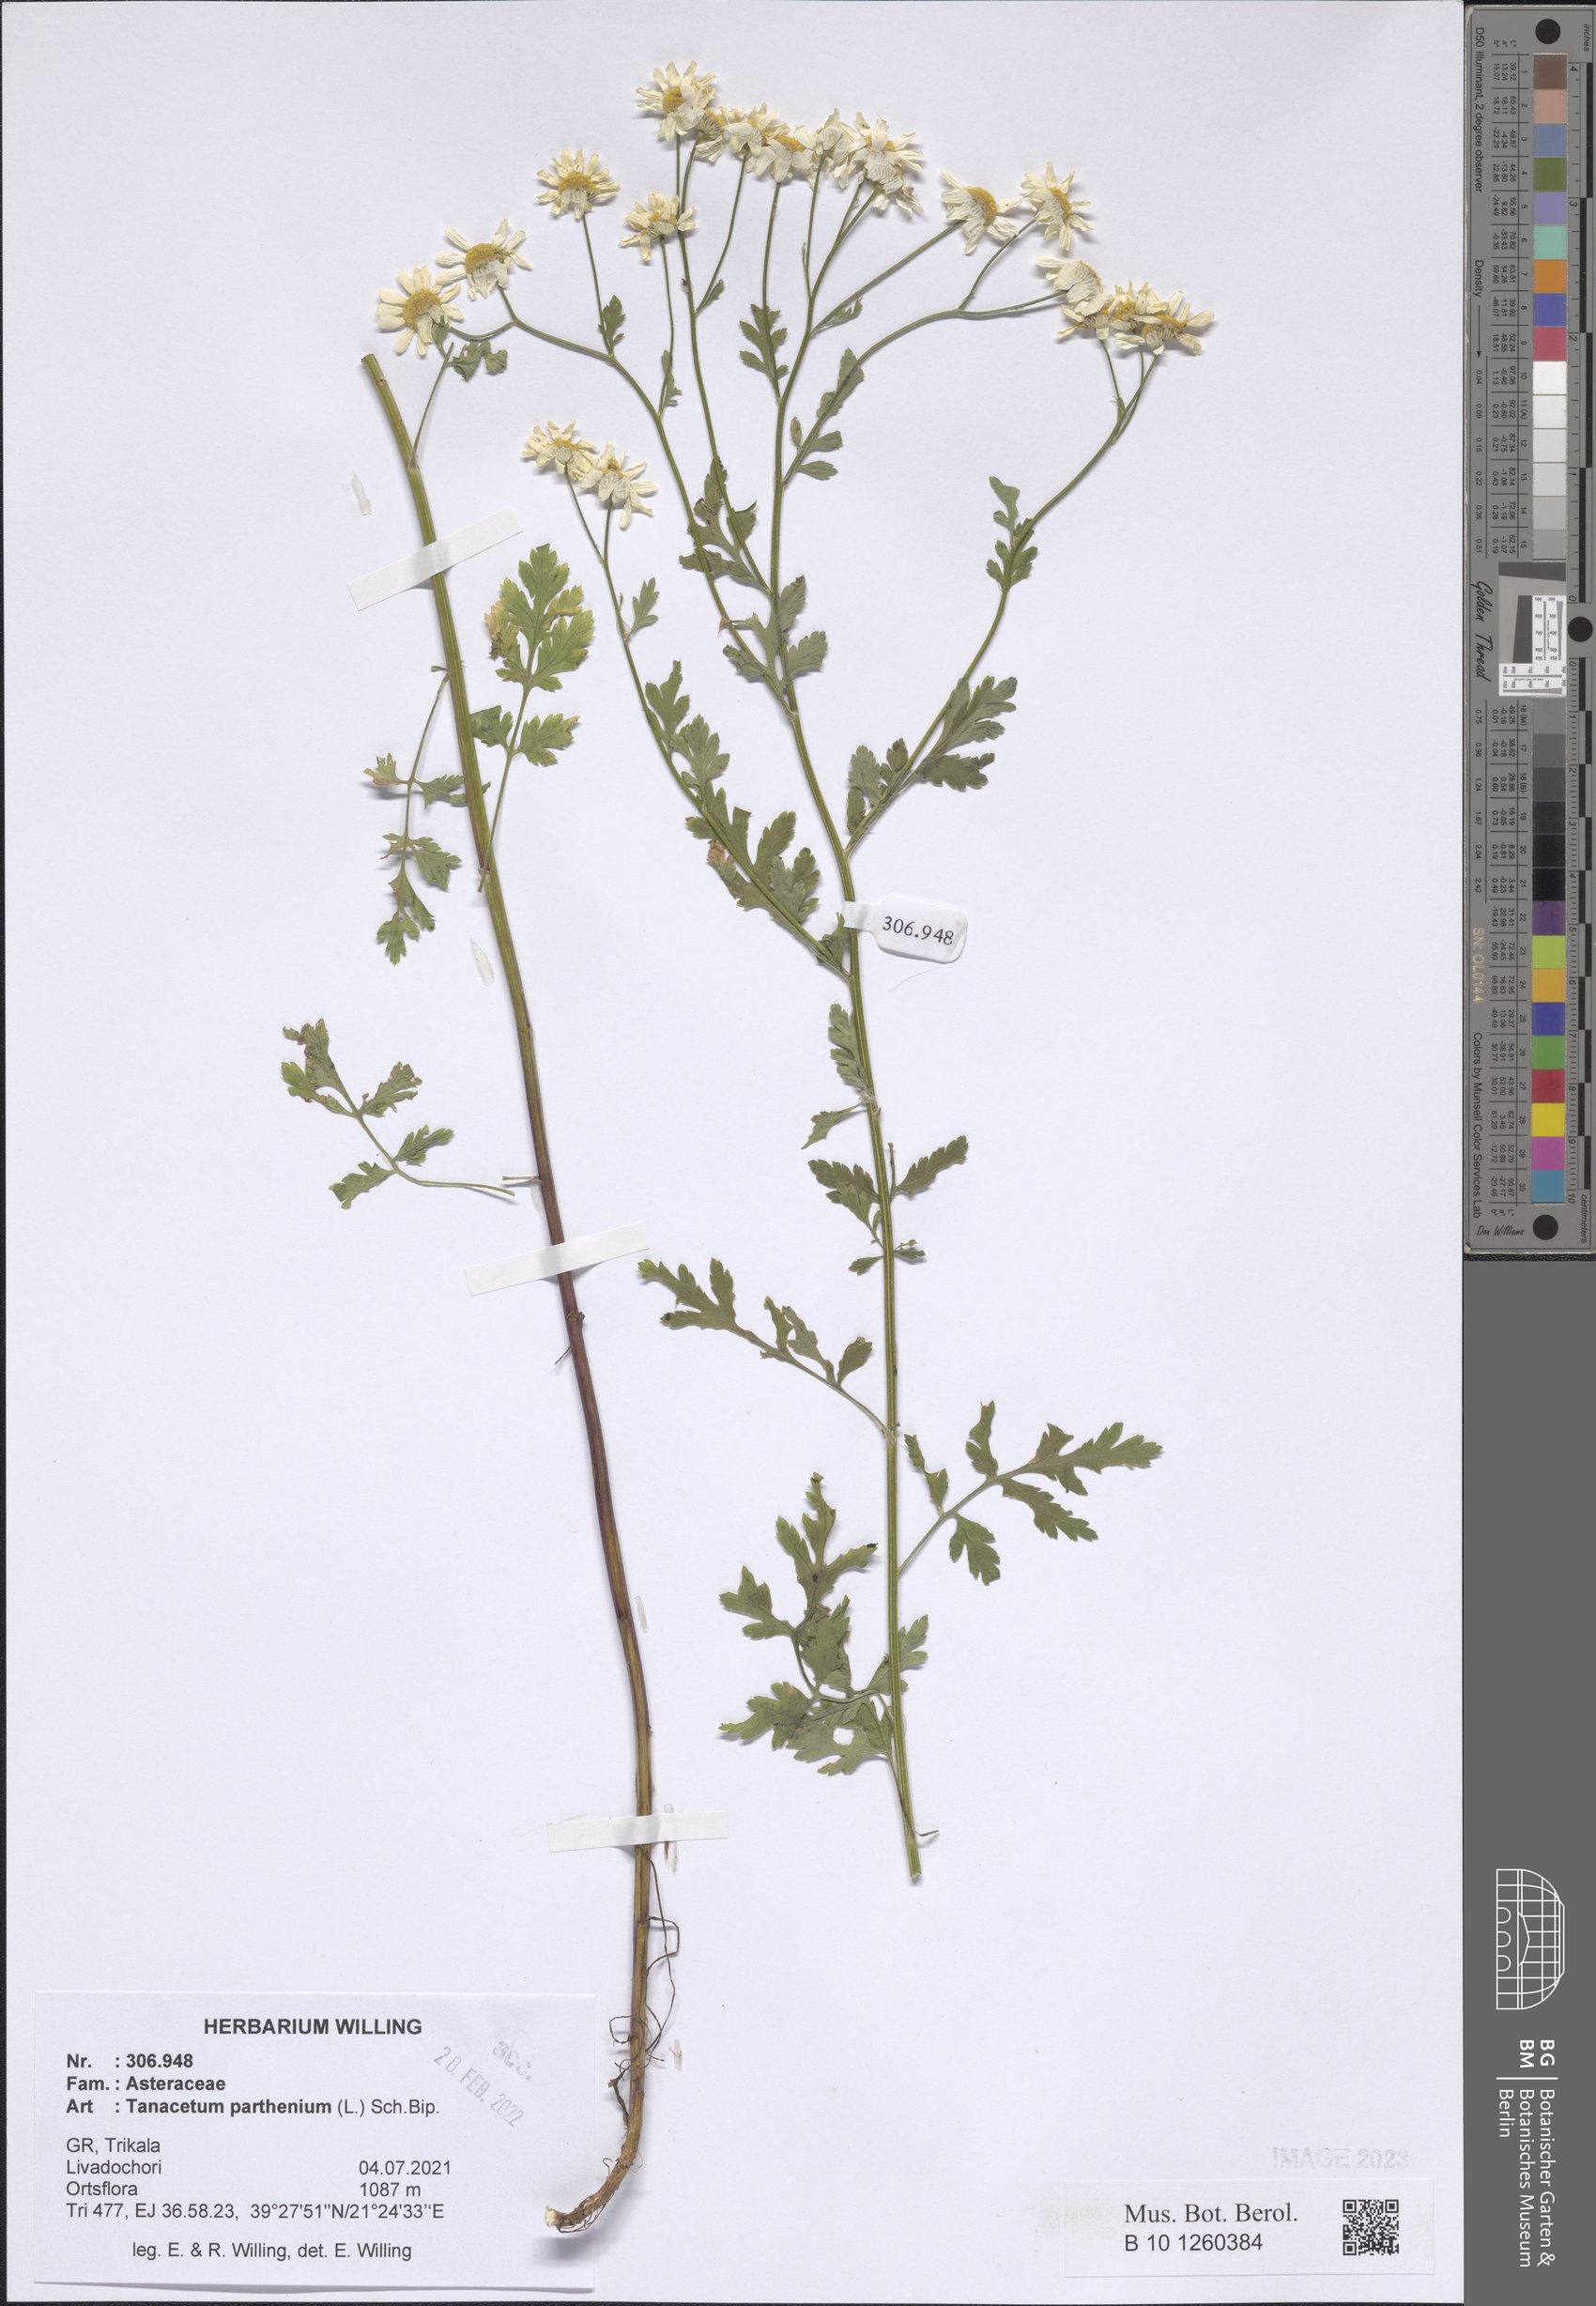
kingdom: Plantae
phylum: Tracheophyta
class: Magnoliopsida
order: Asterales
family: Asteraceae
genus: Tanacetum
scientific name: Tanacetum parthenium
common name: Feverfew
